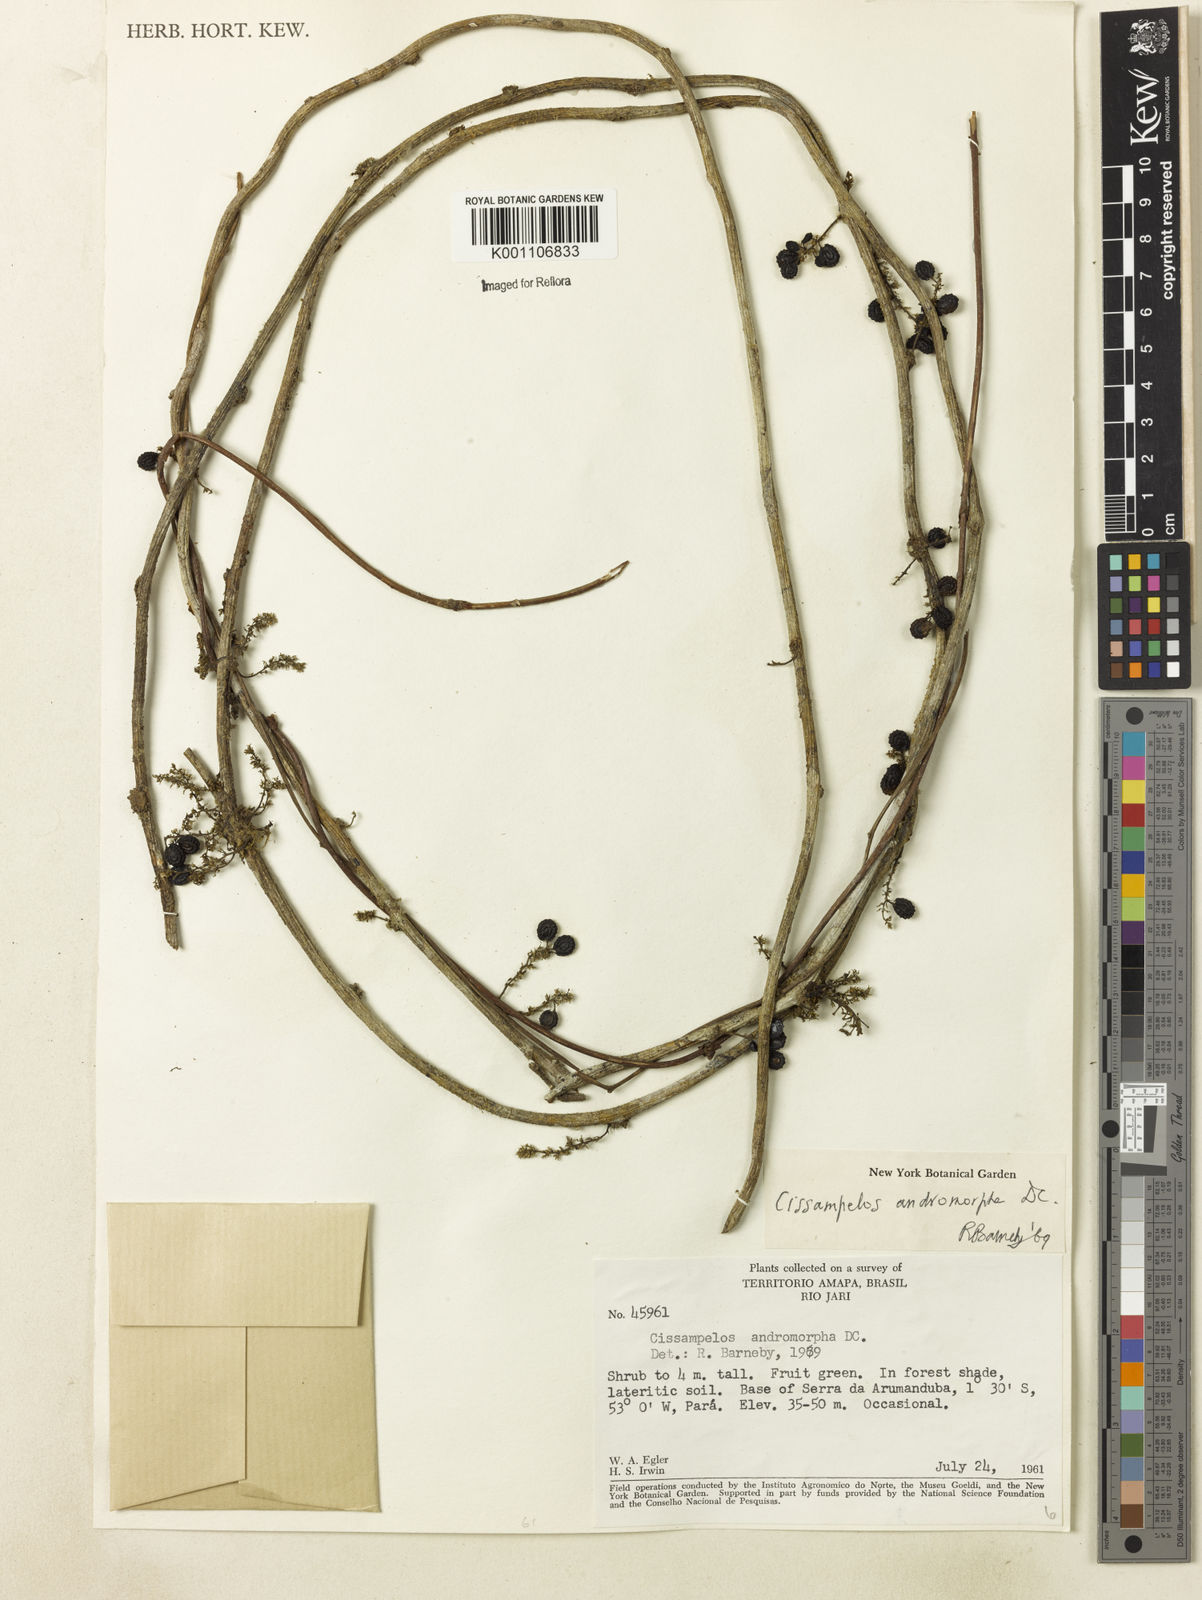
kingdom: Plantae
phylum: Tracheophyta
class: Magnoliopsida
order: Ranunculales
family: Menispermaceae
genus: Cissampelos
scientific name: Cissampelos andromorpha
